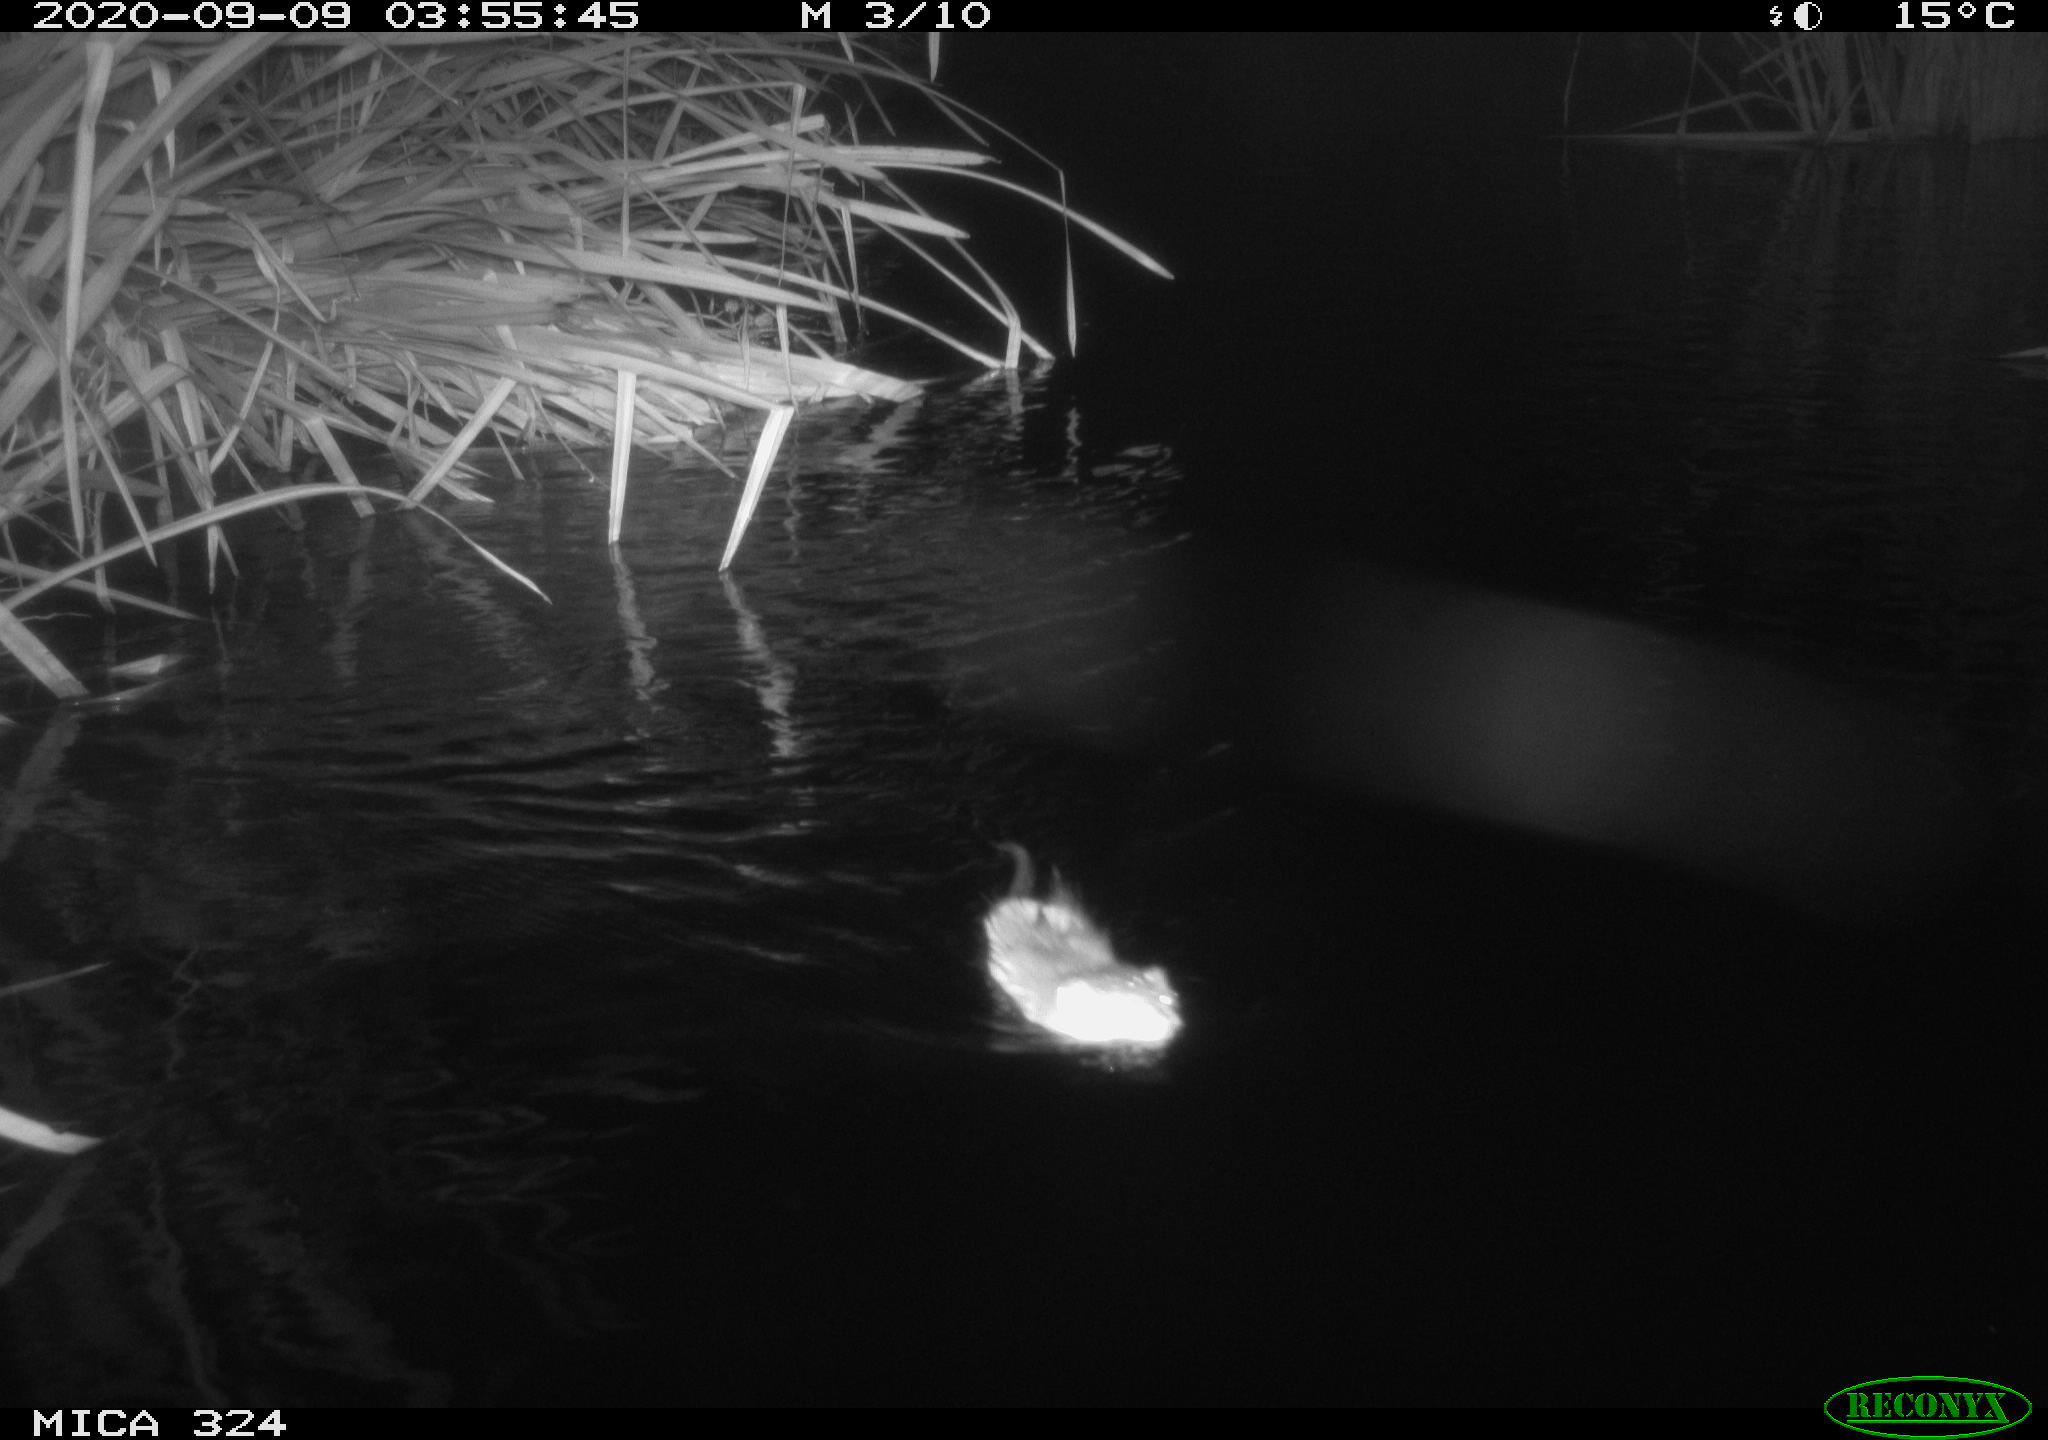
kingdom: Animalia
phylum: Chordata
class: Mammalia
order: Rodentia
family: Cricetidae
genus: Ondatra
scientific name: Ondatra zibethicus
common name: Muskrat
